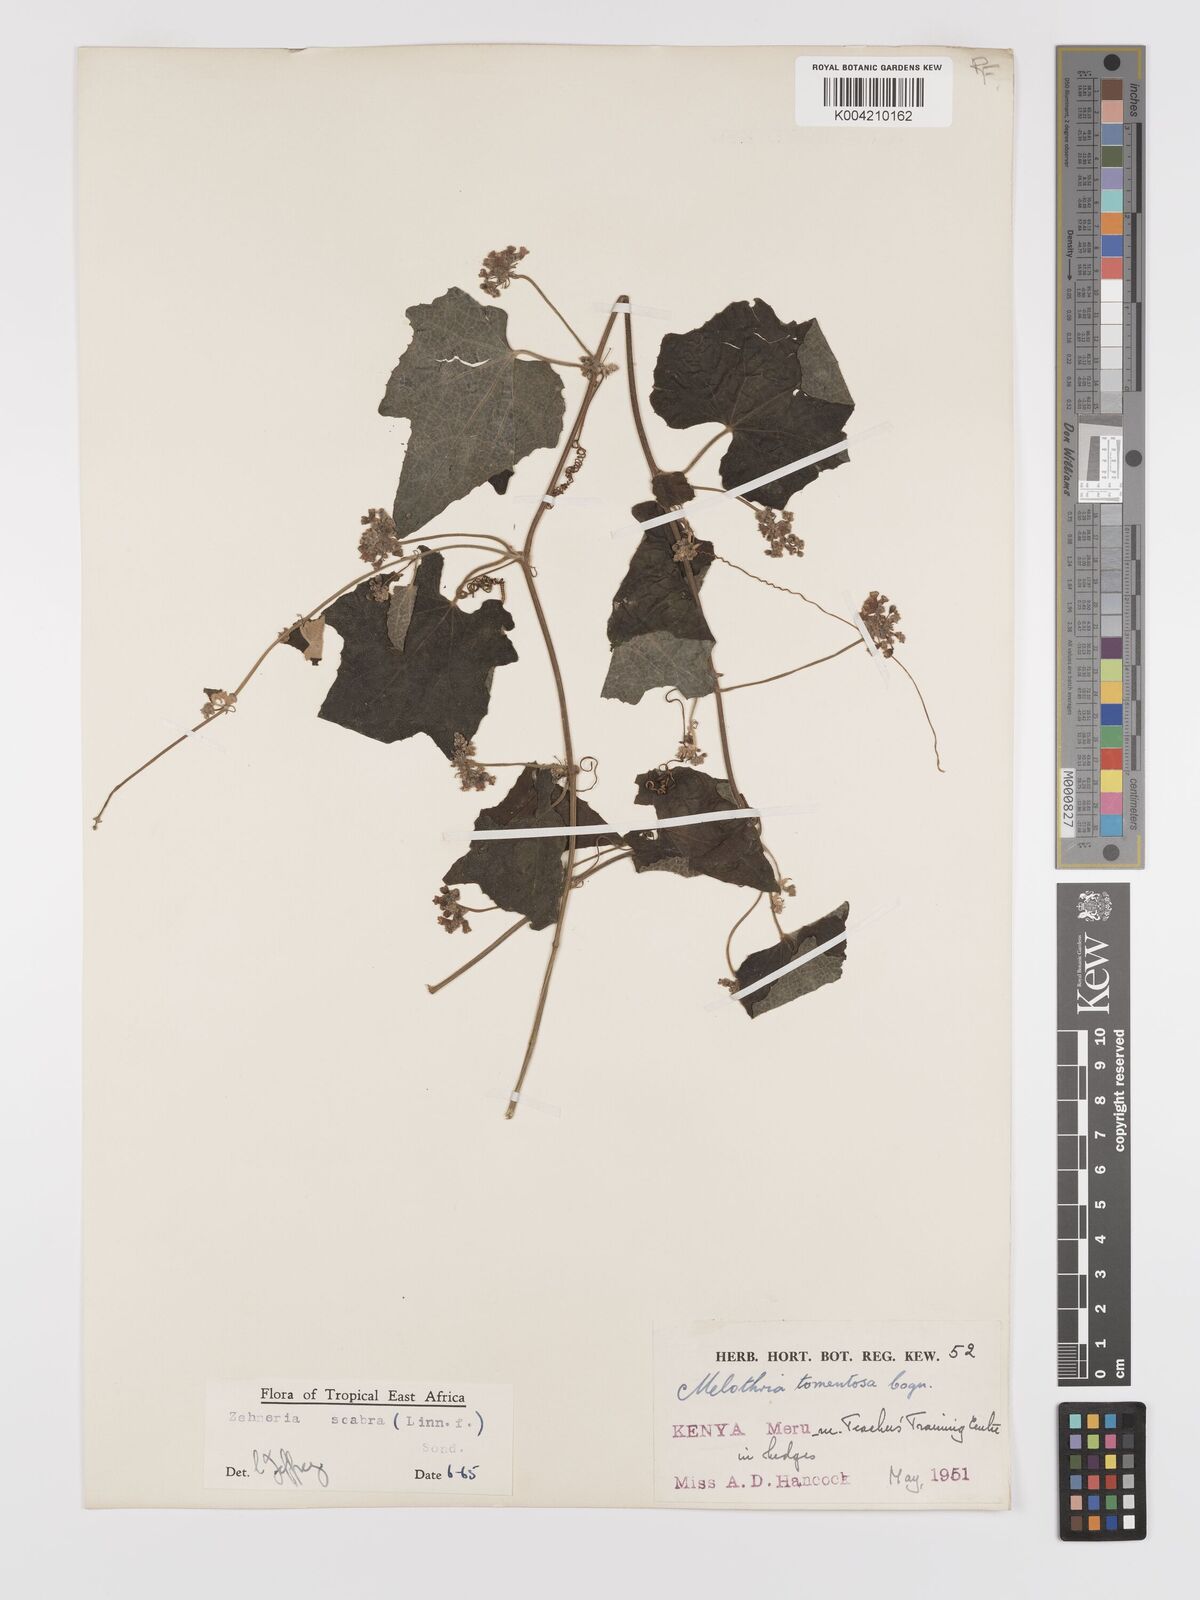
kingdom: Plantae
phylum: Tracheophyta
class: Magnoliopsida
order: Cucurbitales
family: Cucurbitaceae
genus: Zehneria
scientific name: Zehneria scabra
